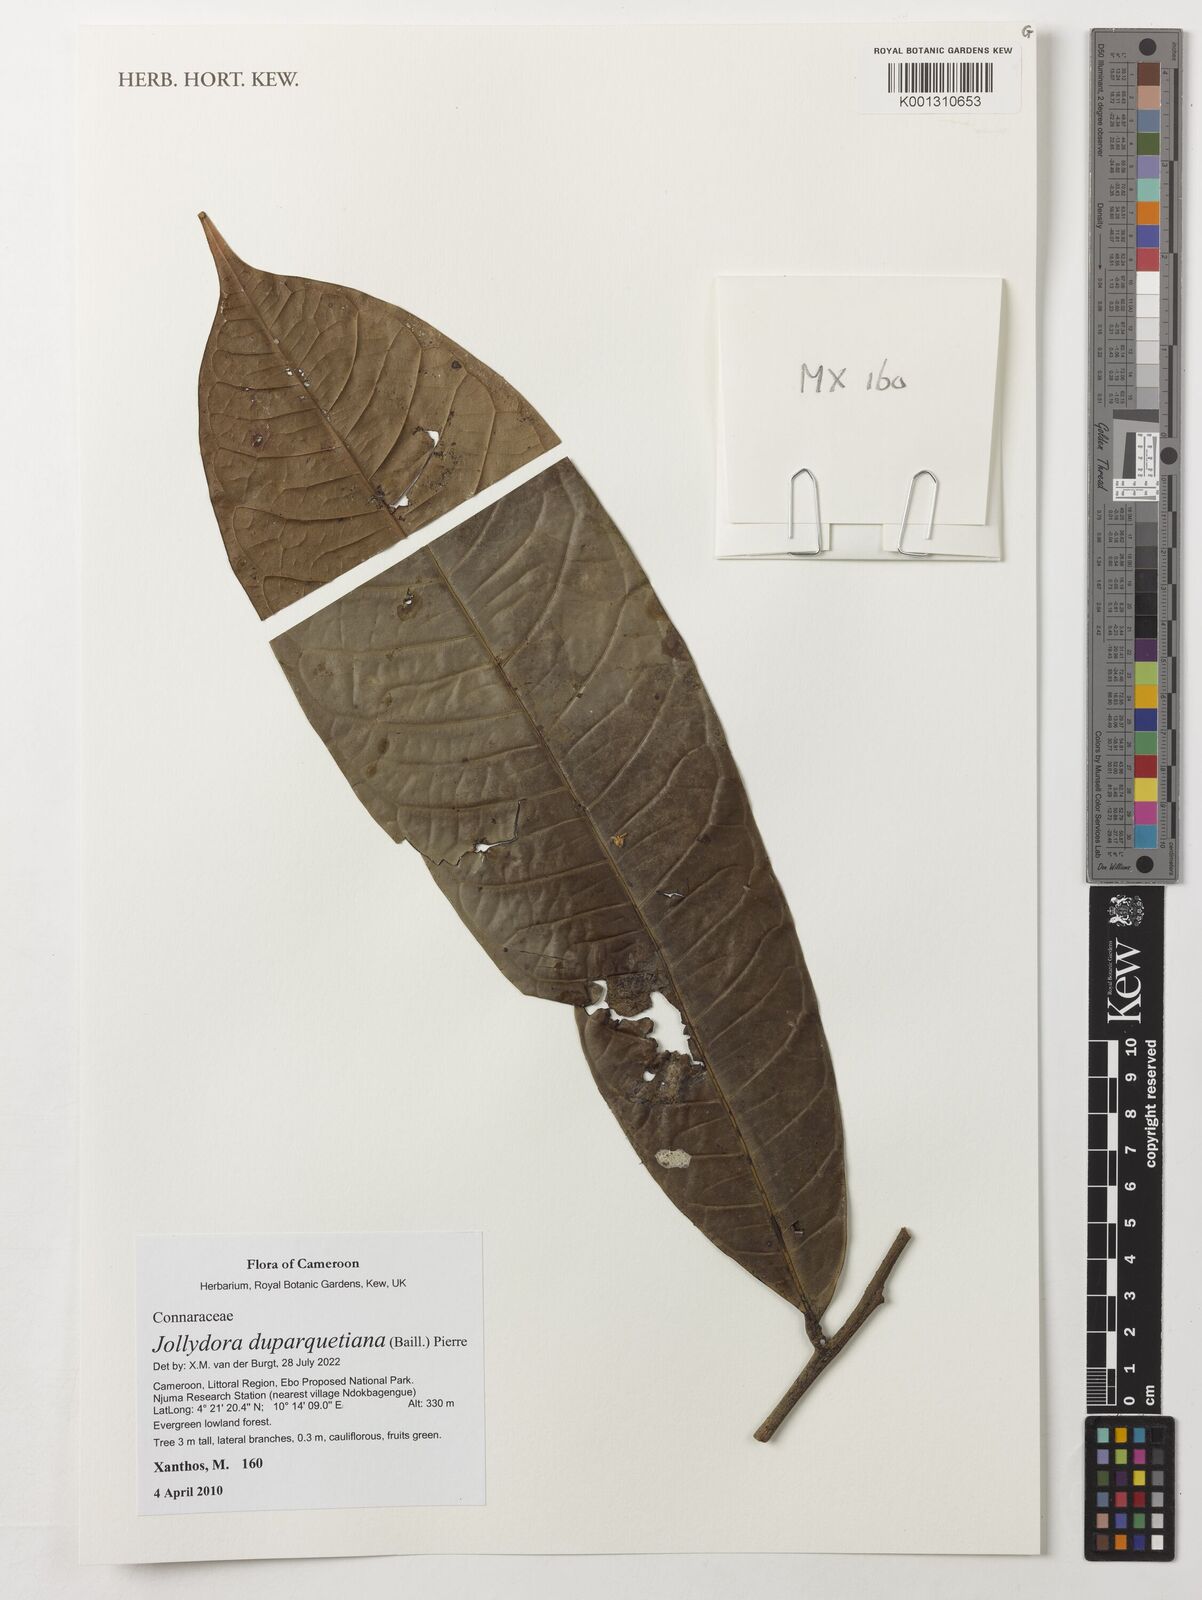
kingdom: Plantae
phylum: Tracheophyta
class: Magnoliopsida
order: Oxalidales
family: Connaraceae
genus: Jollydora
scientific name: Jollydora duparquetiana
